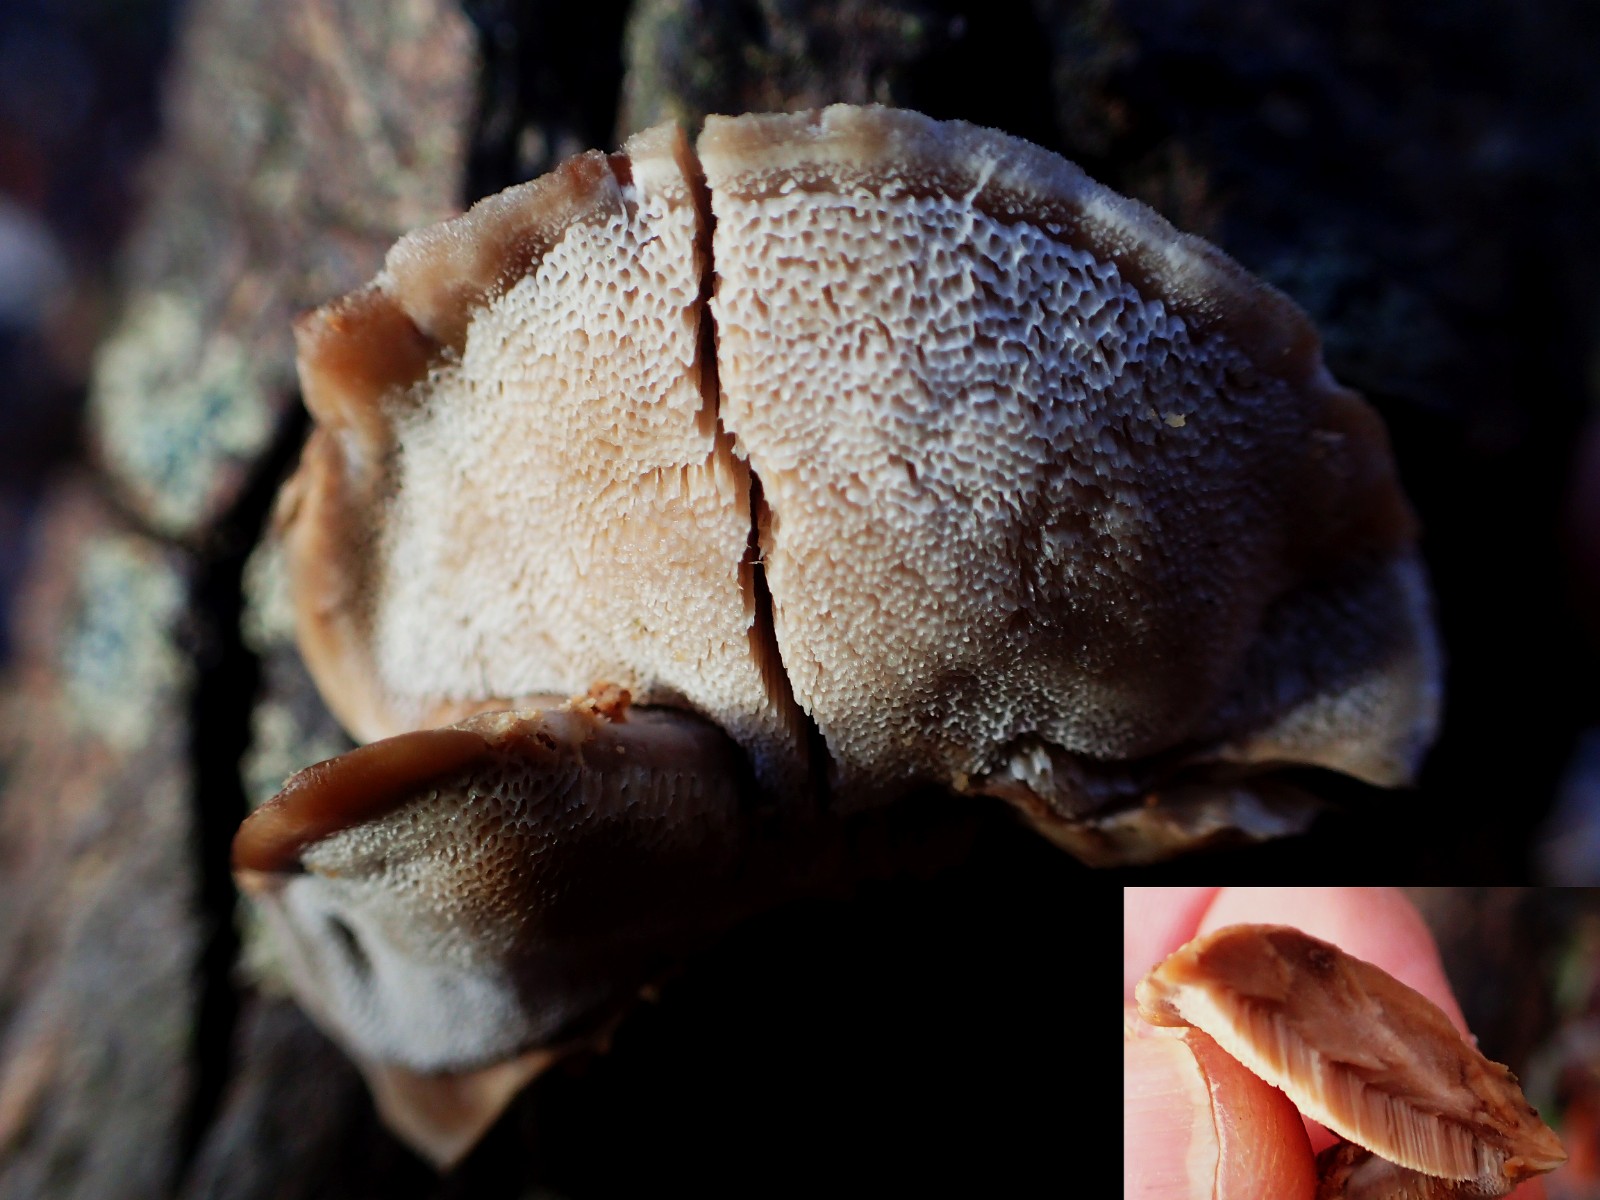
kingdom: Fungi
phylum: Basidiomycota
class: Agaricomycetes
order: Polyporales
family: Phanerochaetaceae
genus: Bjerkandera
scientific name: Bjerkandera fumosa
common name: grågul sodporesvamp
